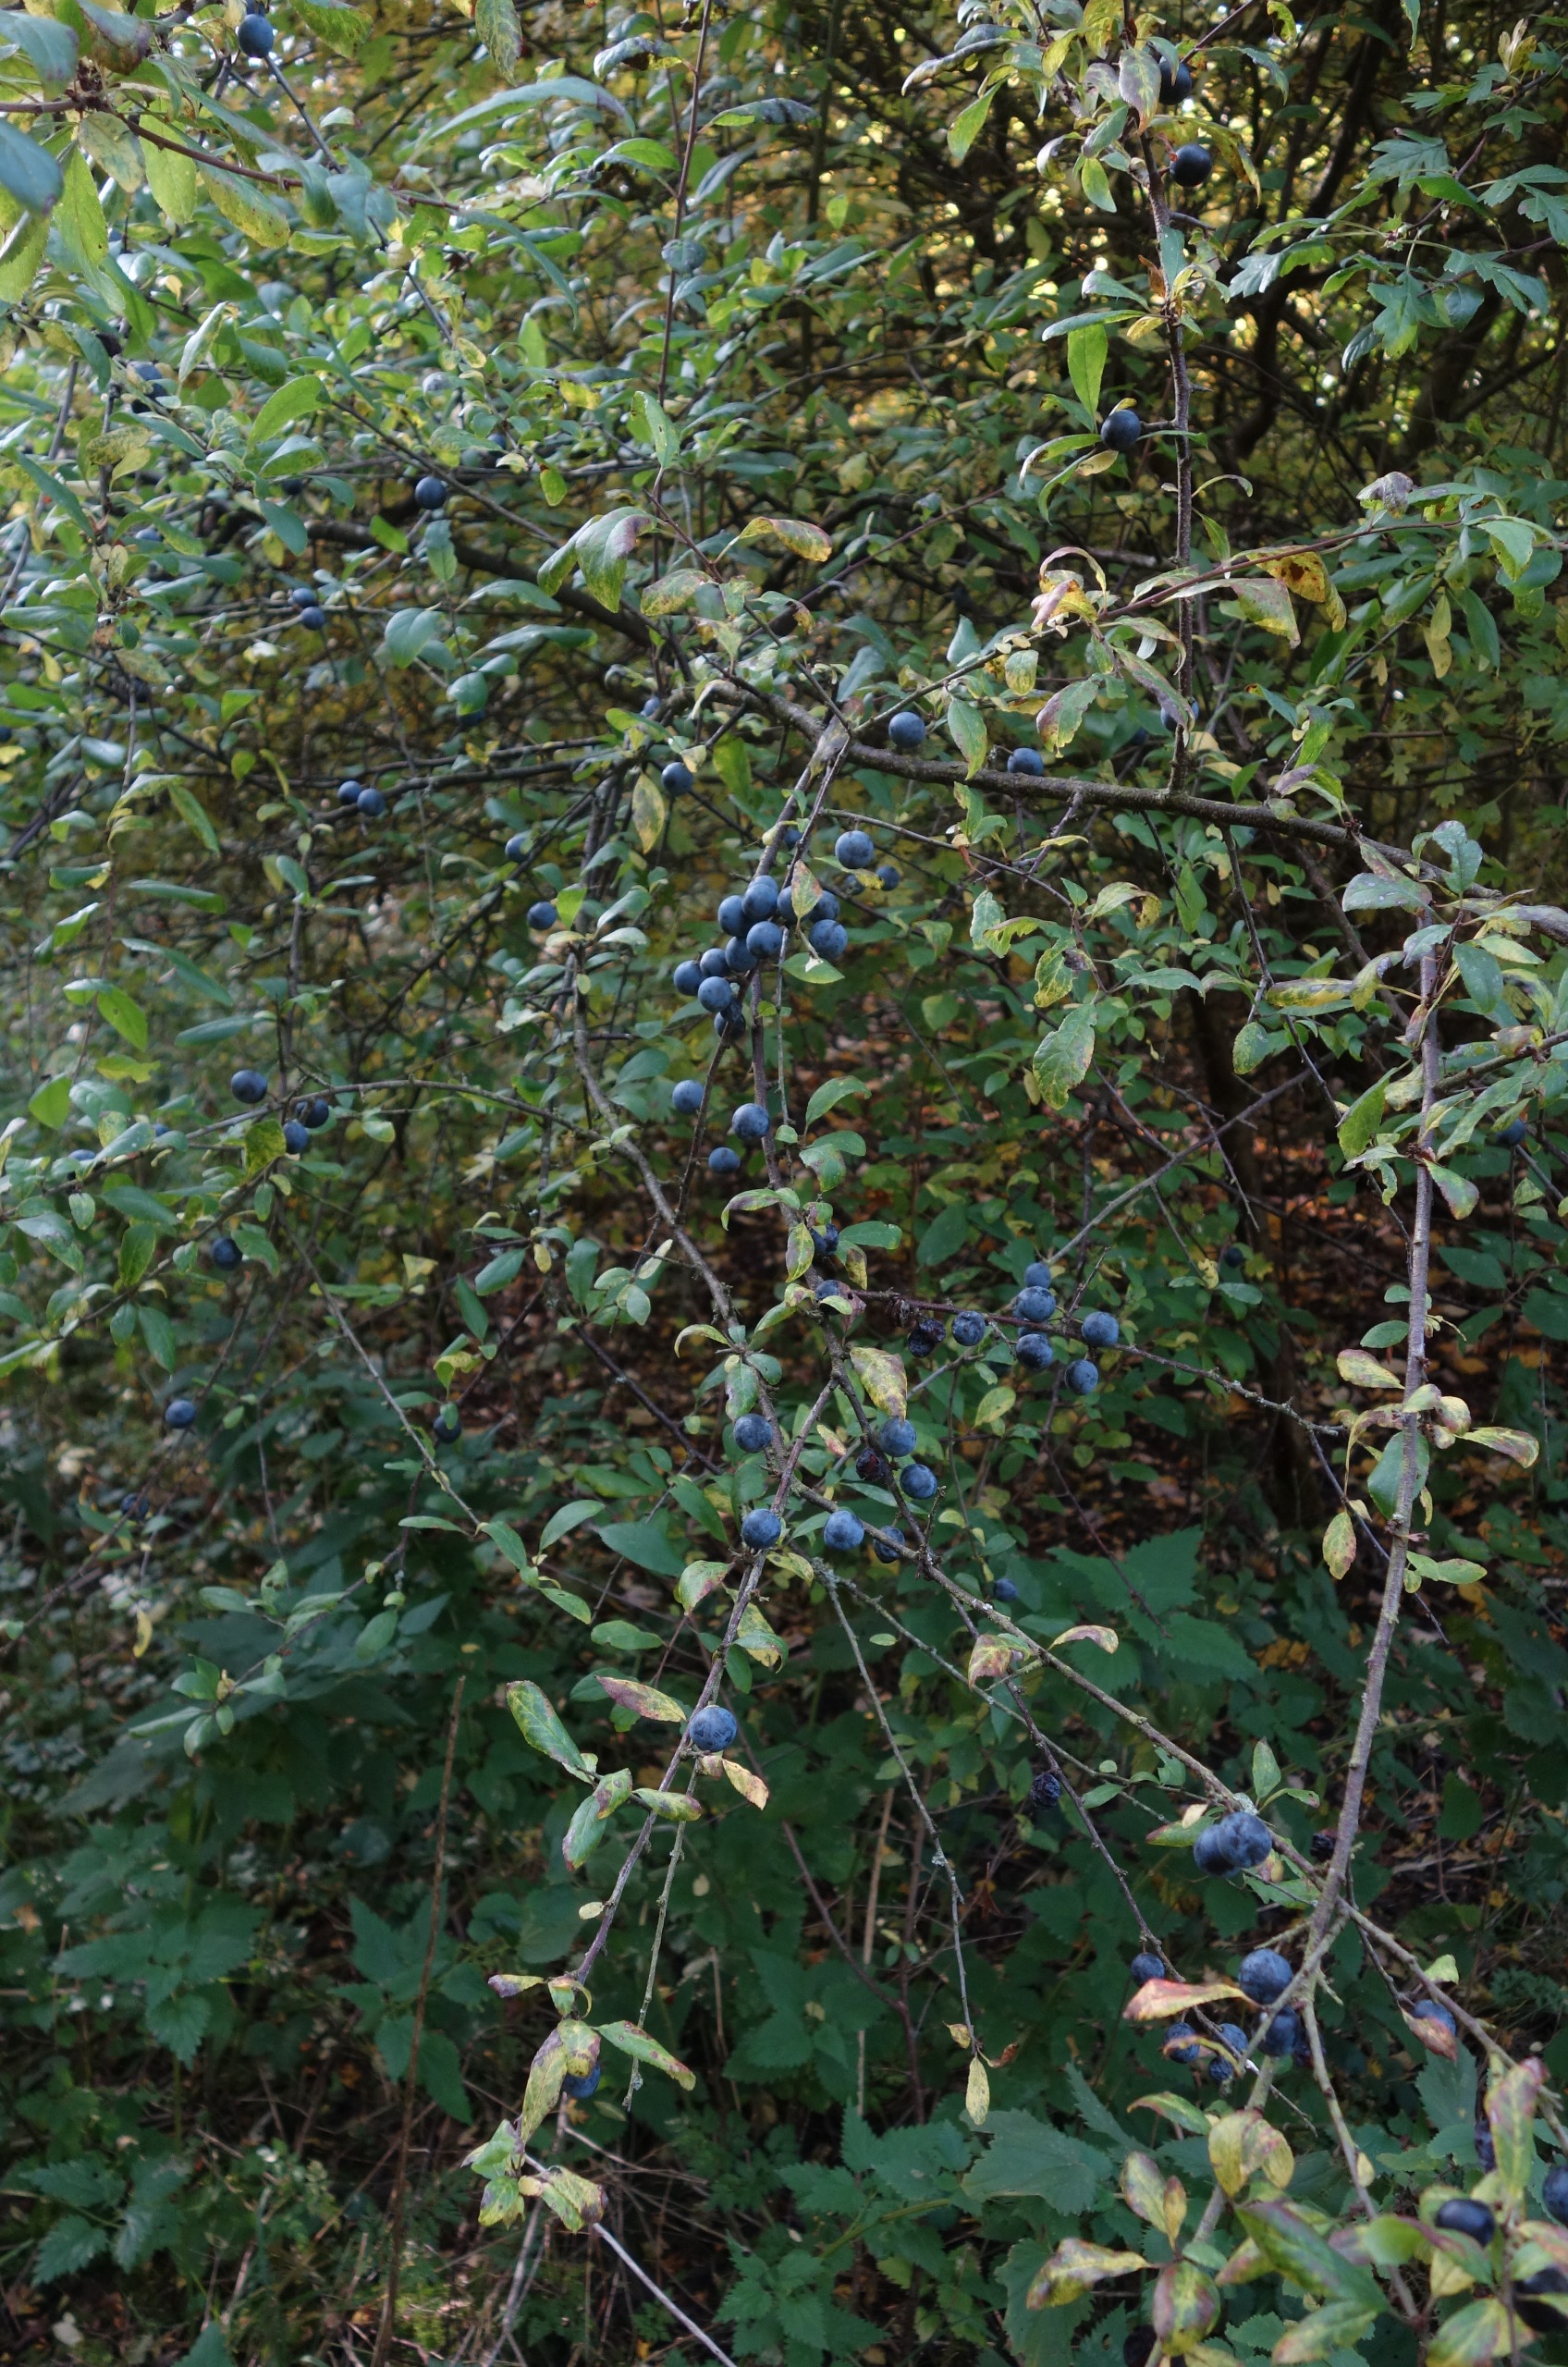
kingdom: Plantae
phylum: Tracheophyta
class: Magnoliopsida
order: Rosales
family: Rosaceae
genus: Prunus
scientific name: Prunus spinosa
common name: Slåen
